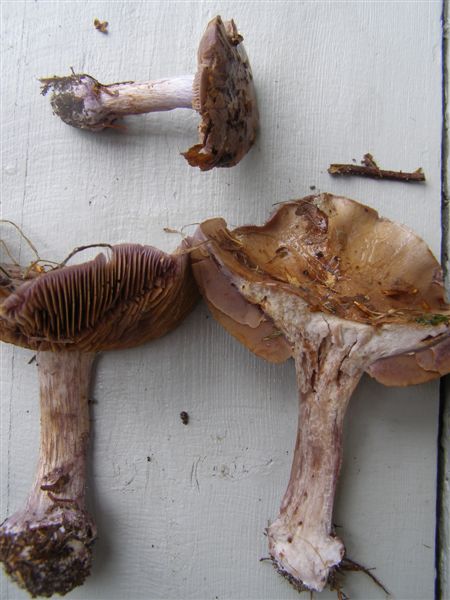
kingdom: Fungi
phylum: Basidiomycota
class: Agaricomycetes
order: Agaricales
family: Cortinariaceae
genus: Thaxterogaster
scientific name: Thaxterogaster purpurascens
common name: purpurbrun slørhat
